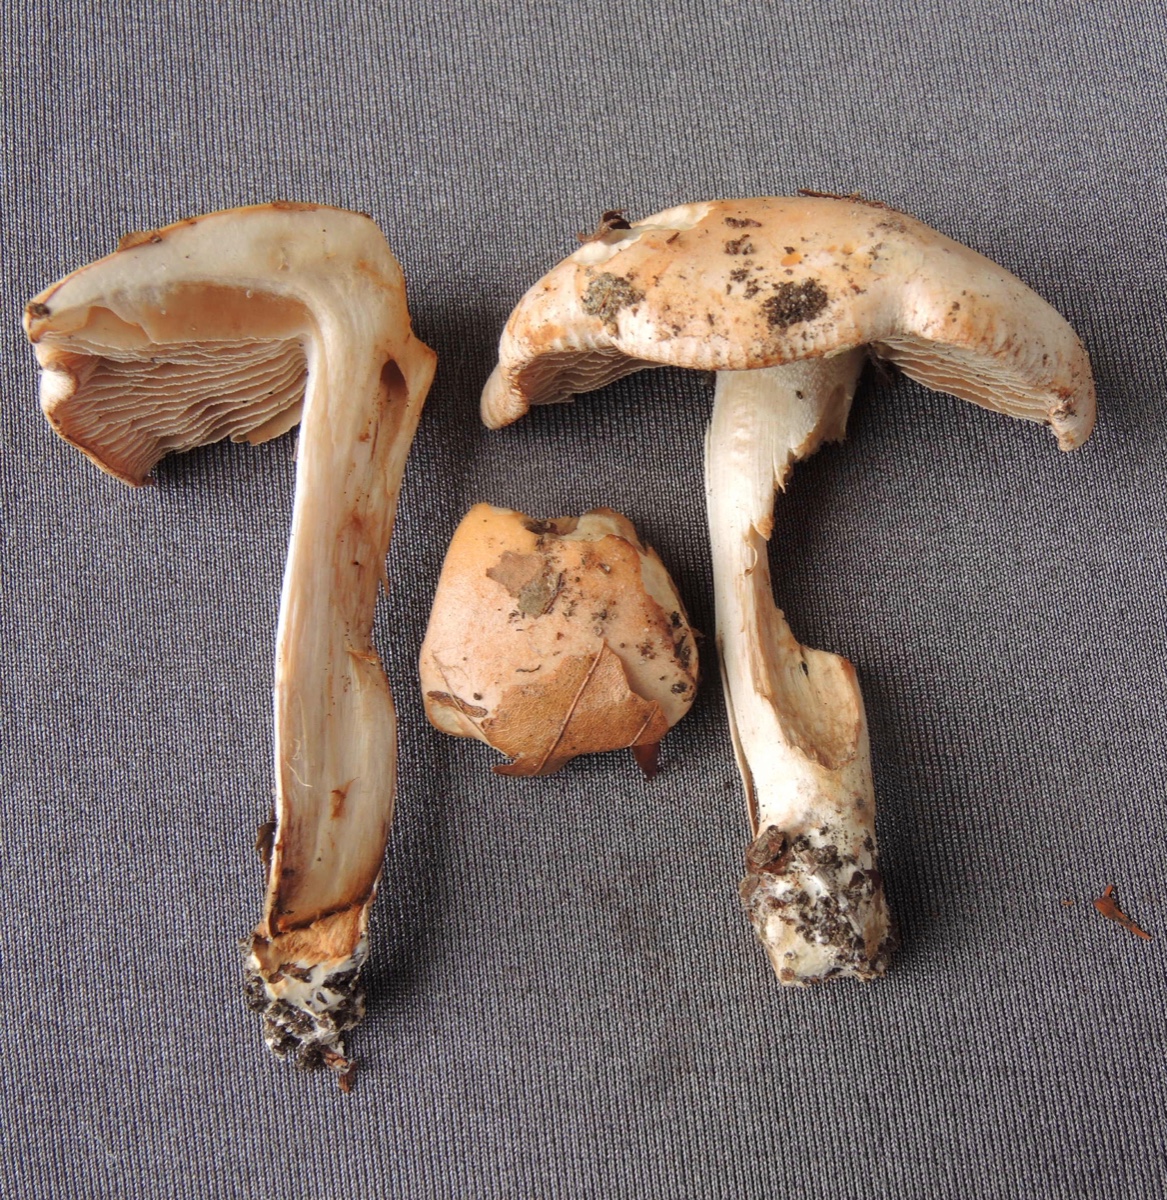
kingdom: Fungi
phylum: Basidiomycota
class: Agaricomycetes
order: Agaricales
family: Hymenogastraceae
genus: Hebeloma
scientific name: Hebeloma aestivale
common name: sommer-tåreblad
